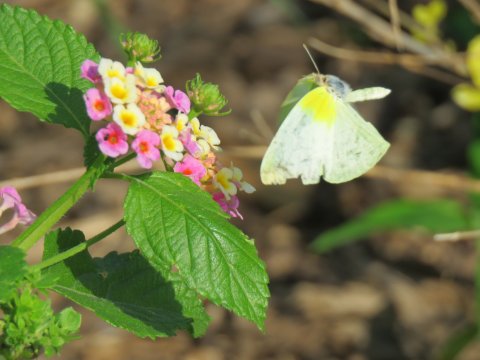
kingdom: Animalia
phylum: Arthropoda
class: Insecta
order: Lepidoptera
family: Pieridae
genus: Kricogonia
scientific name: Kricogonia lyside
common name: Lyside Sulphur
